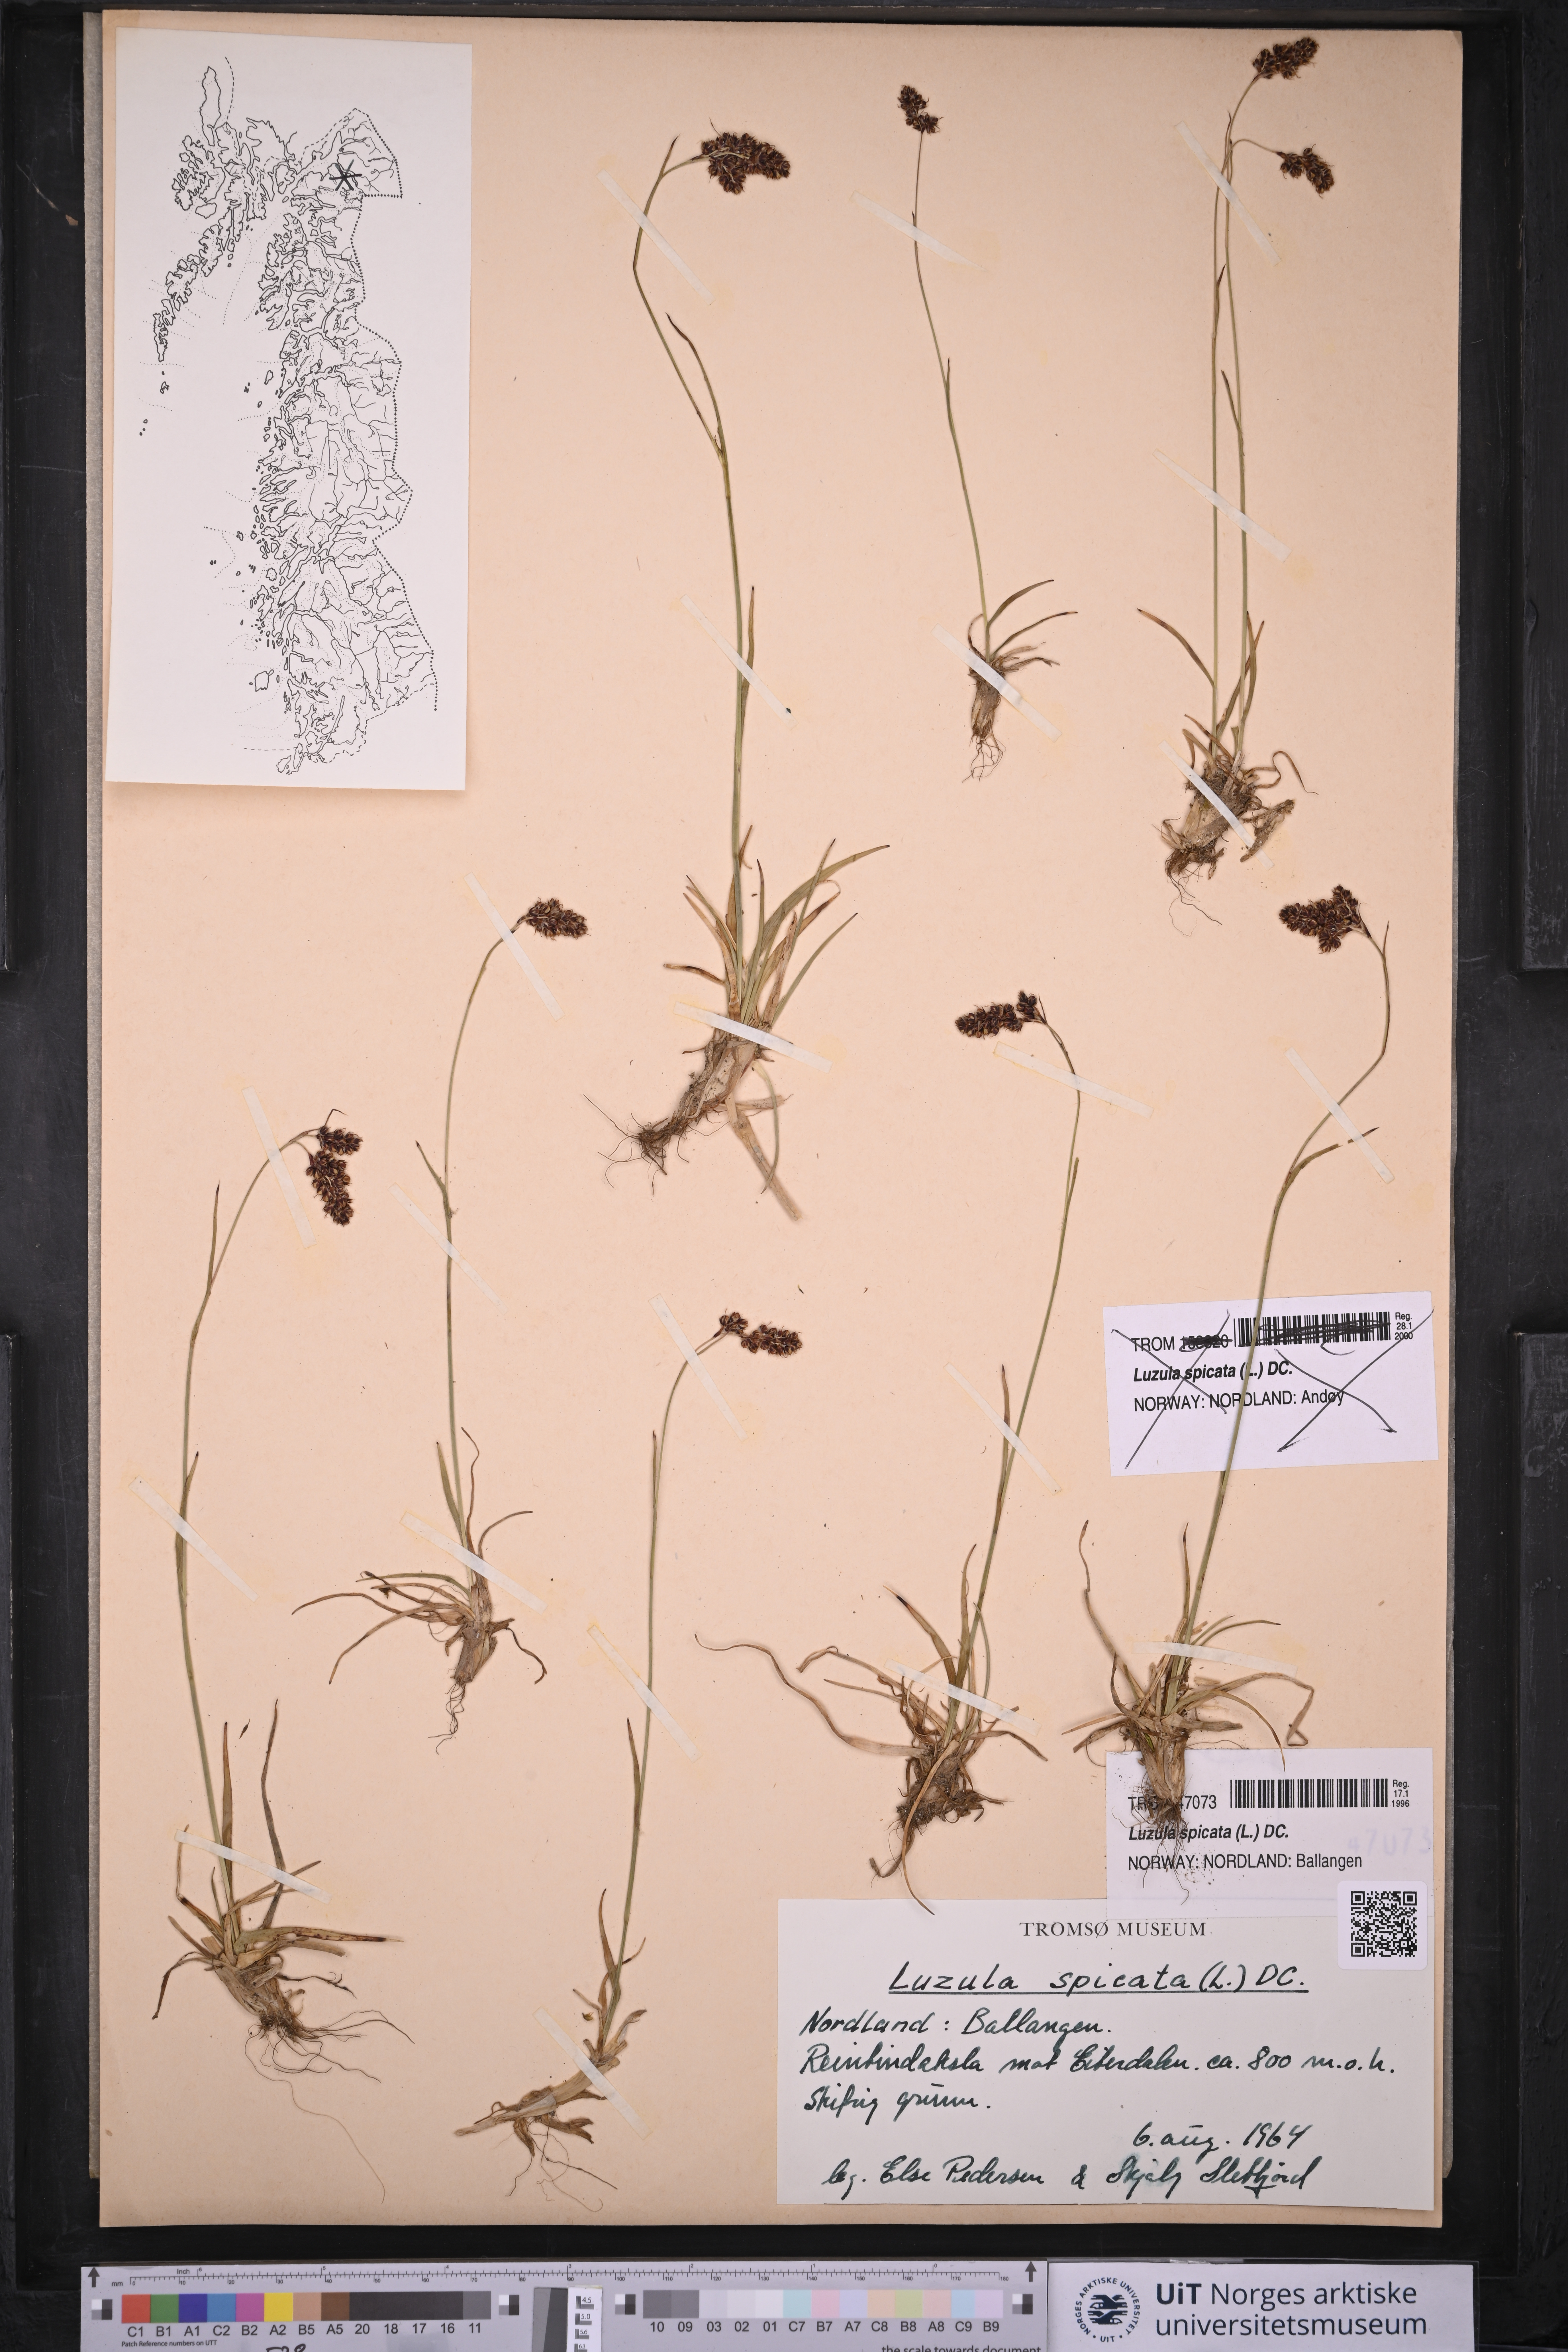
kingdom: Plantae
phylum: Tracheophyta
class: Liliopsida
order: Poales
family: Juncaceae
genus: Luzula
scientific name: Luzula spicata
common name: Spiked wood-rush
